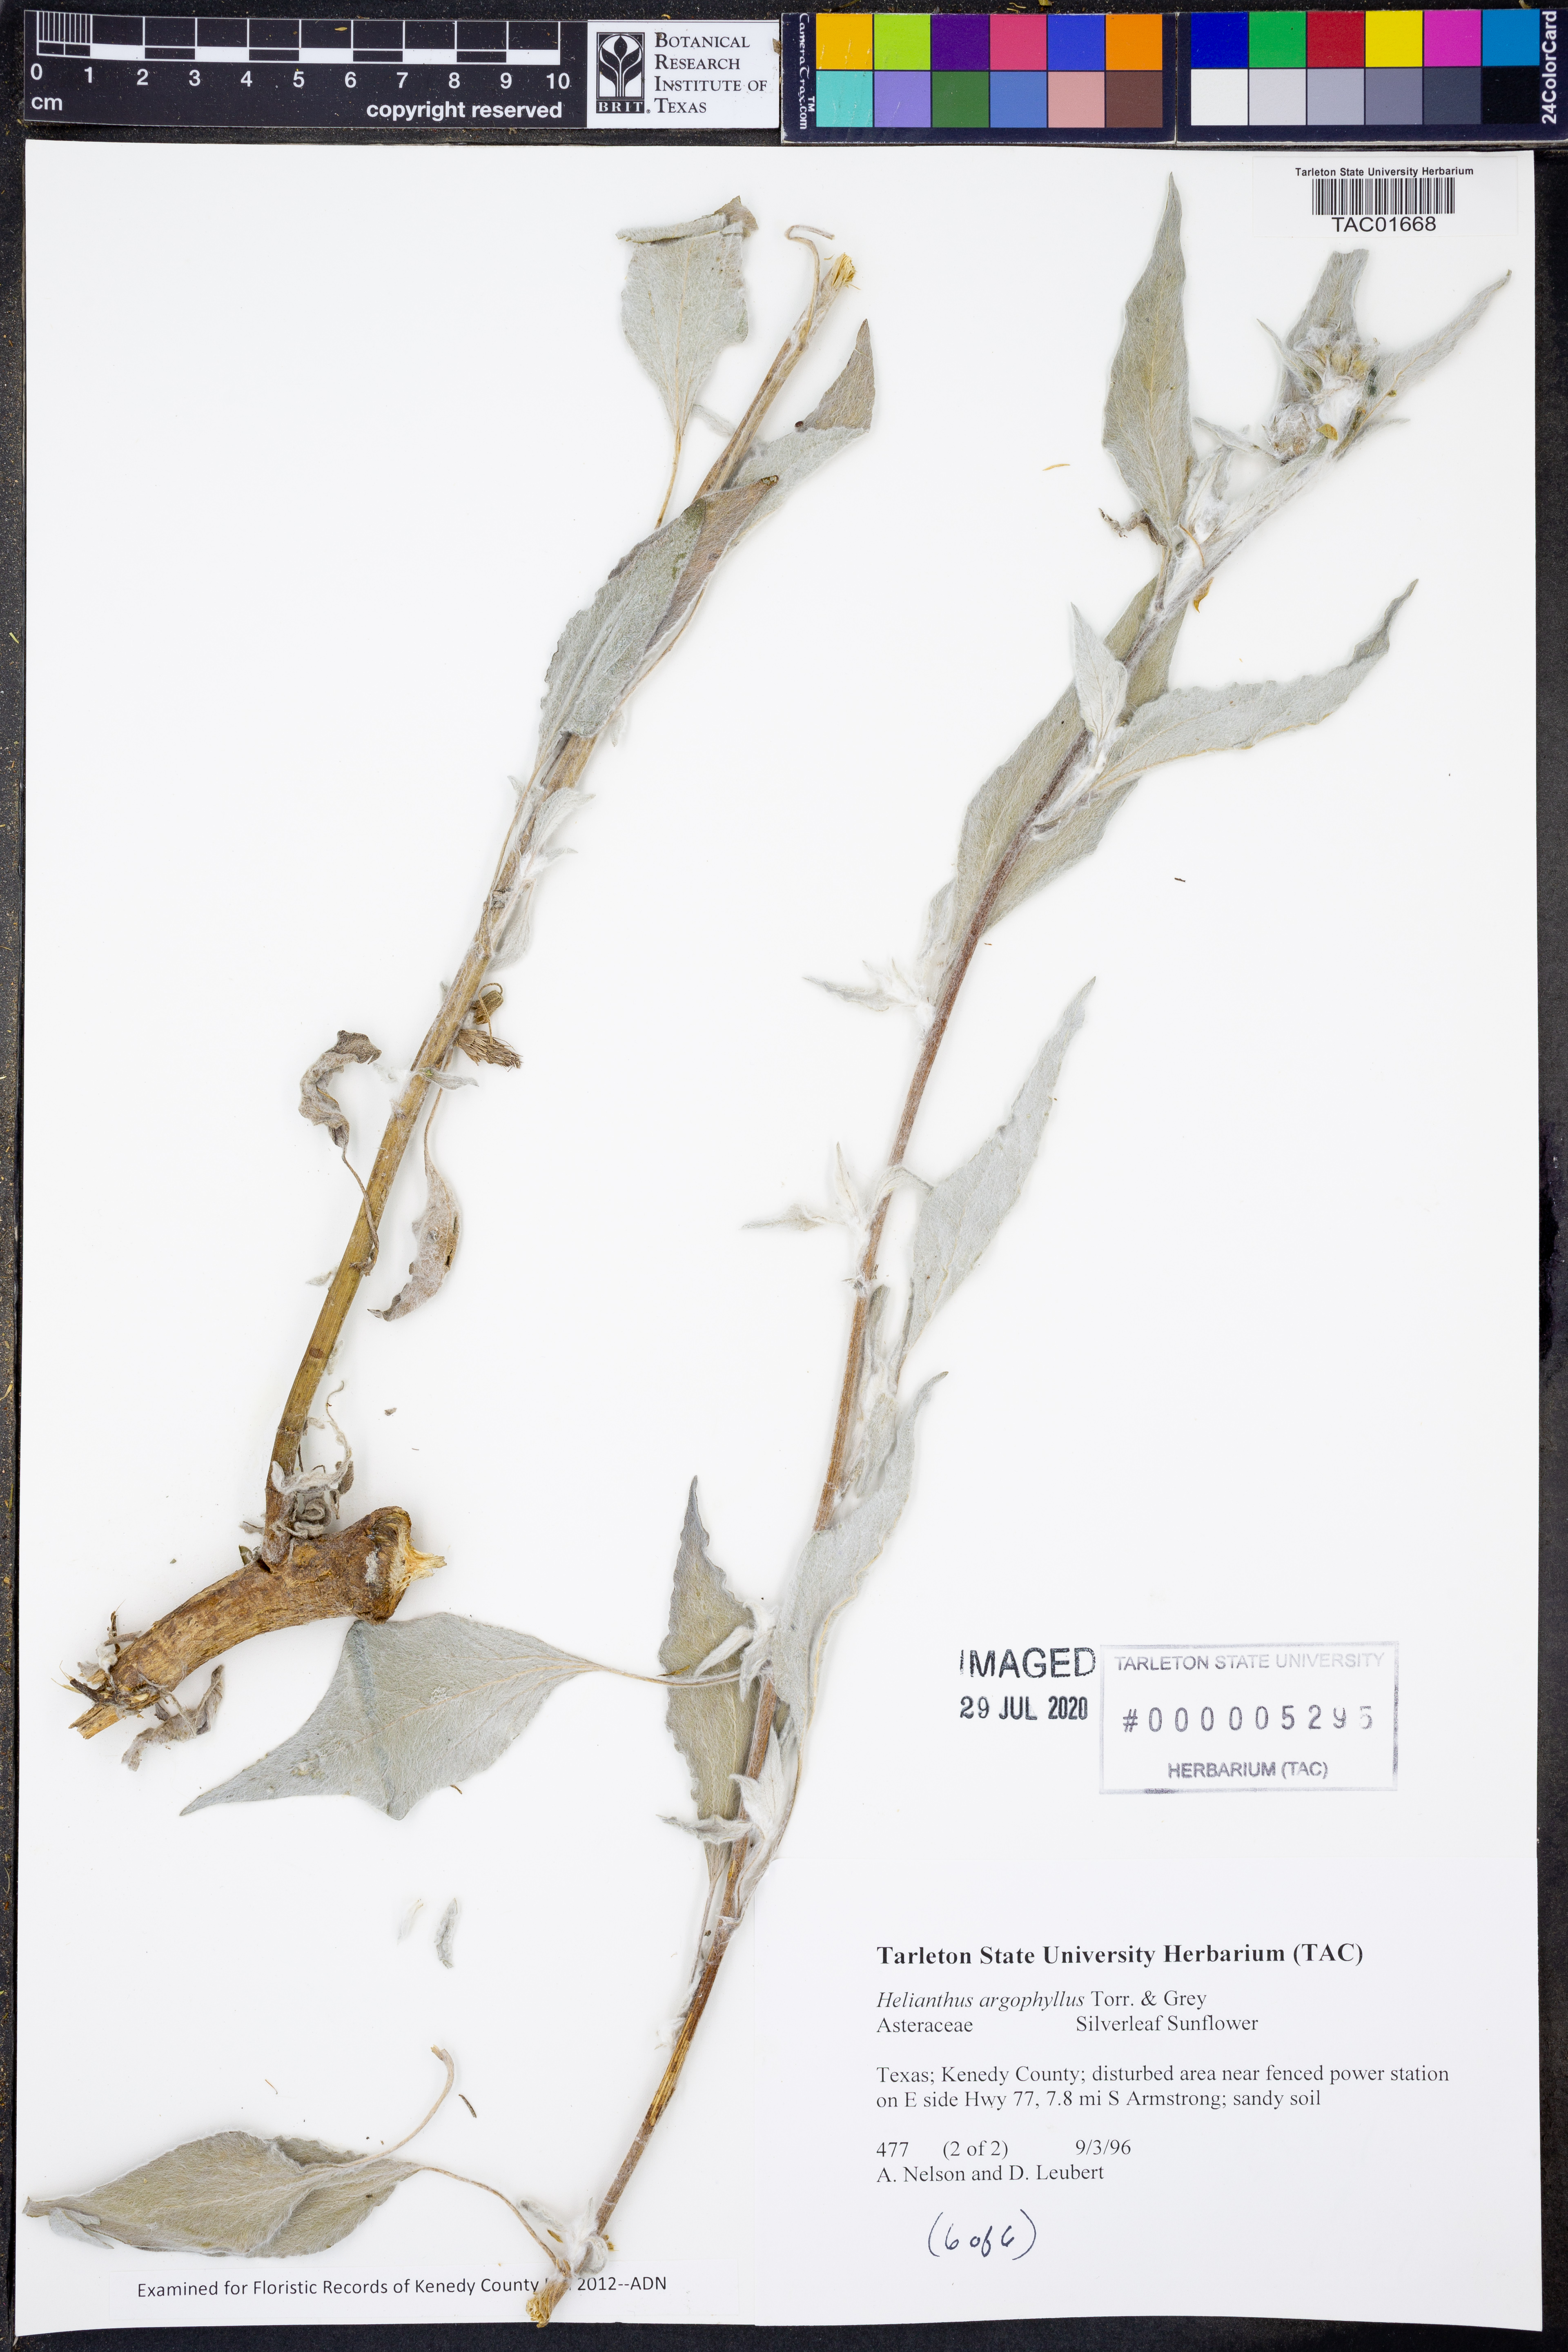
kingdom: Plantae
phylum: Tracheophyta
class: Magnoliopsida
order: Asterales
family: Asteraceae
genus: Helianthus
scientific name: Helianthus argophyllus
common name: Silverleaf sunflower
